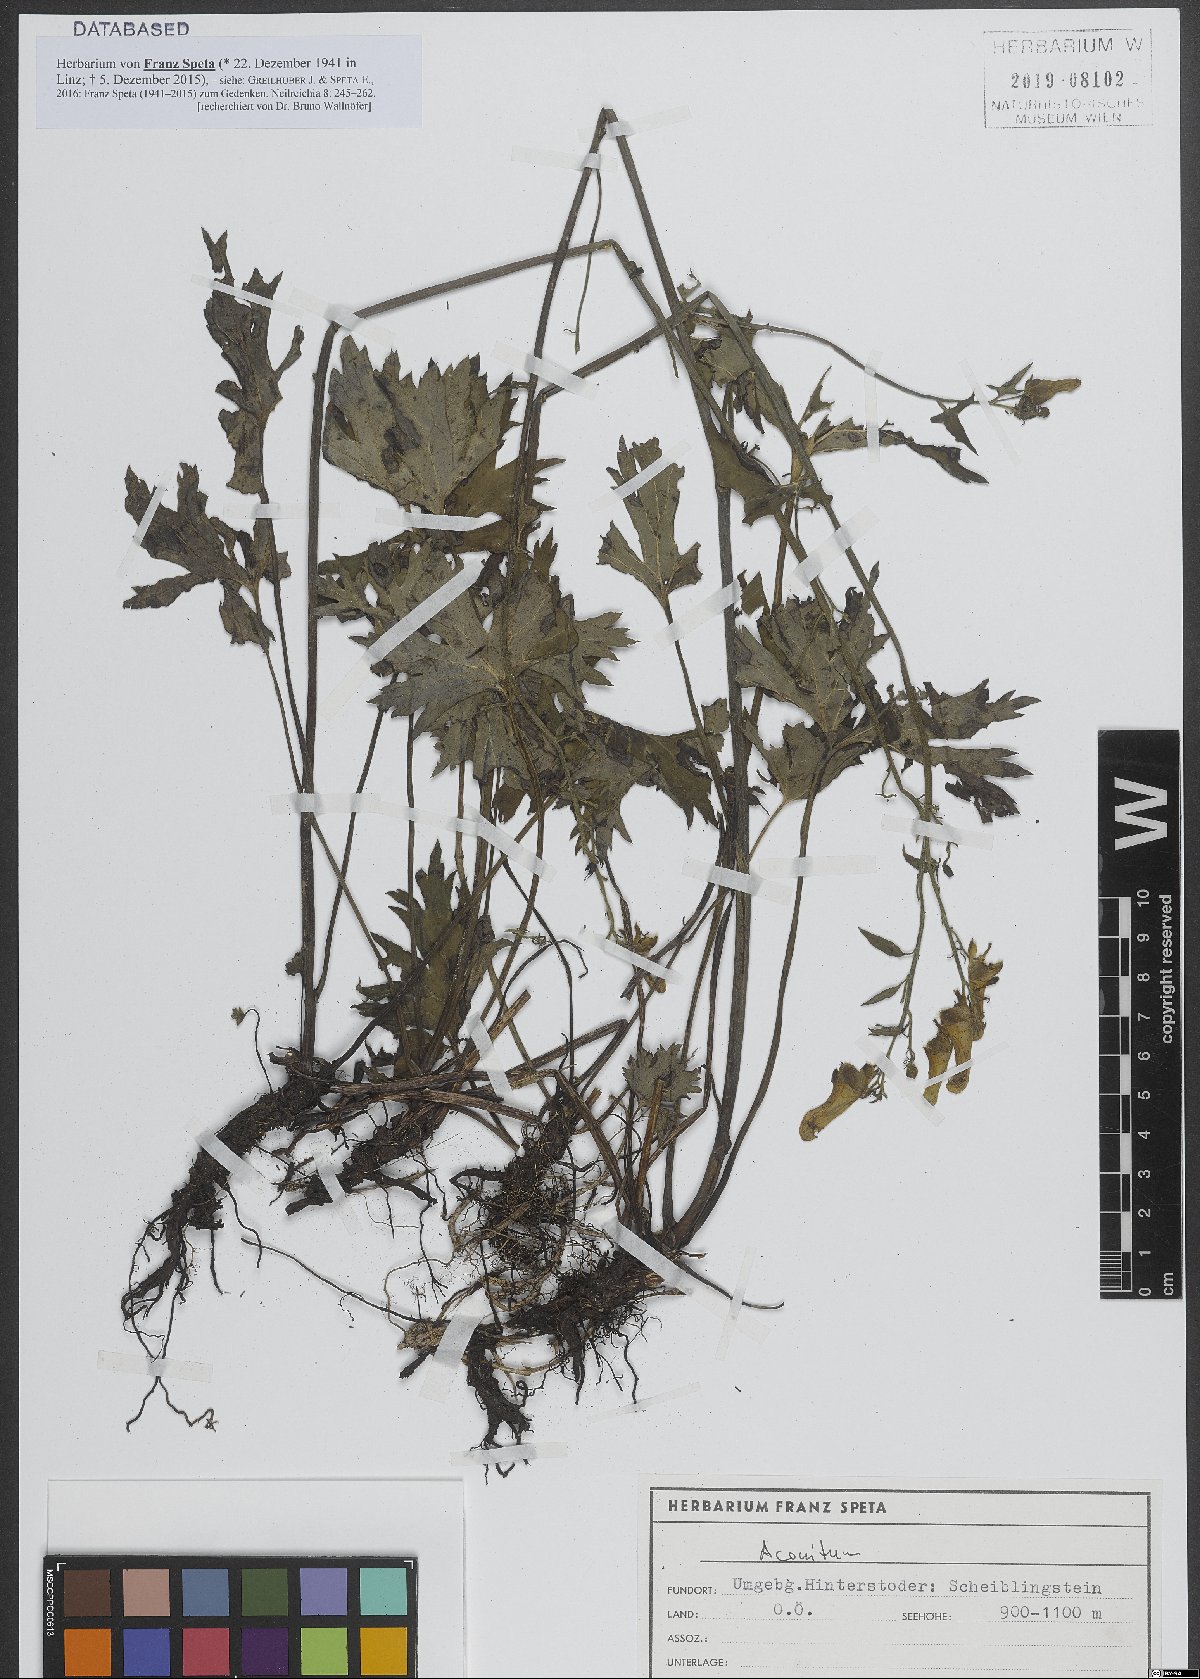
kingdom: Plantae
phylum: Tracheophyta
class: Magnoliopsida
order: Ranunculales
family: Ranunculaceae
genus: Aconitum
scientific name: Aconitum
